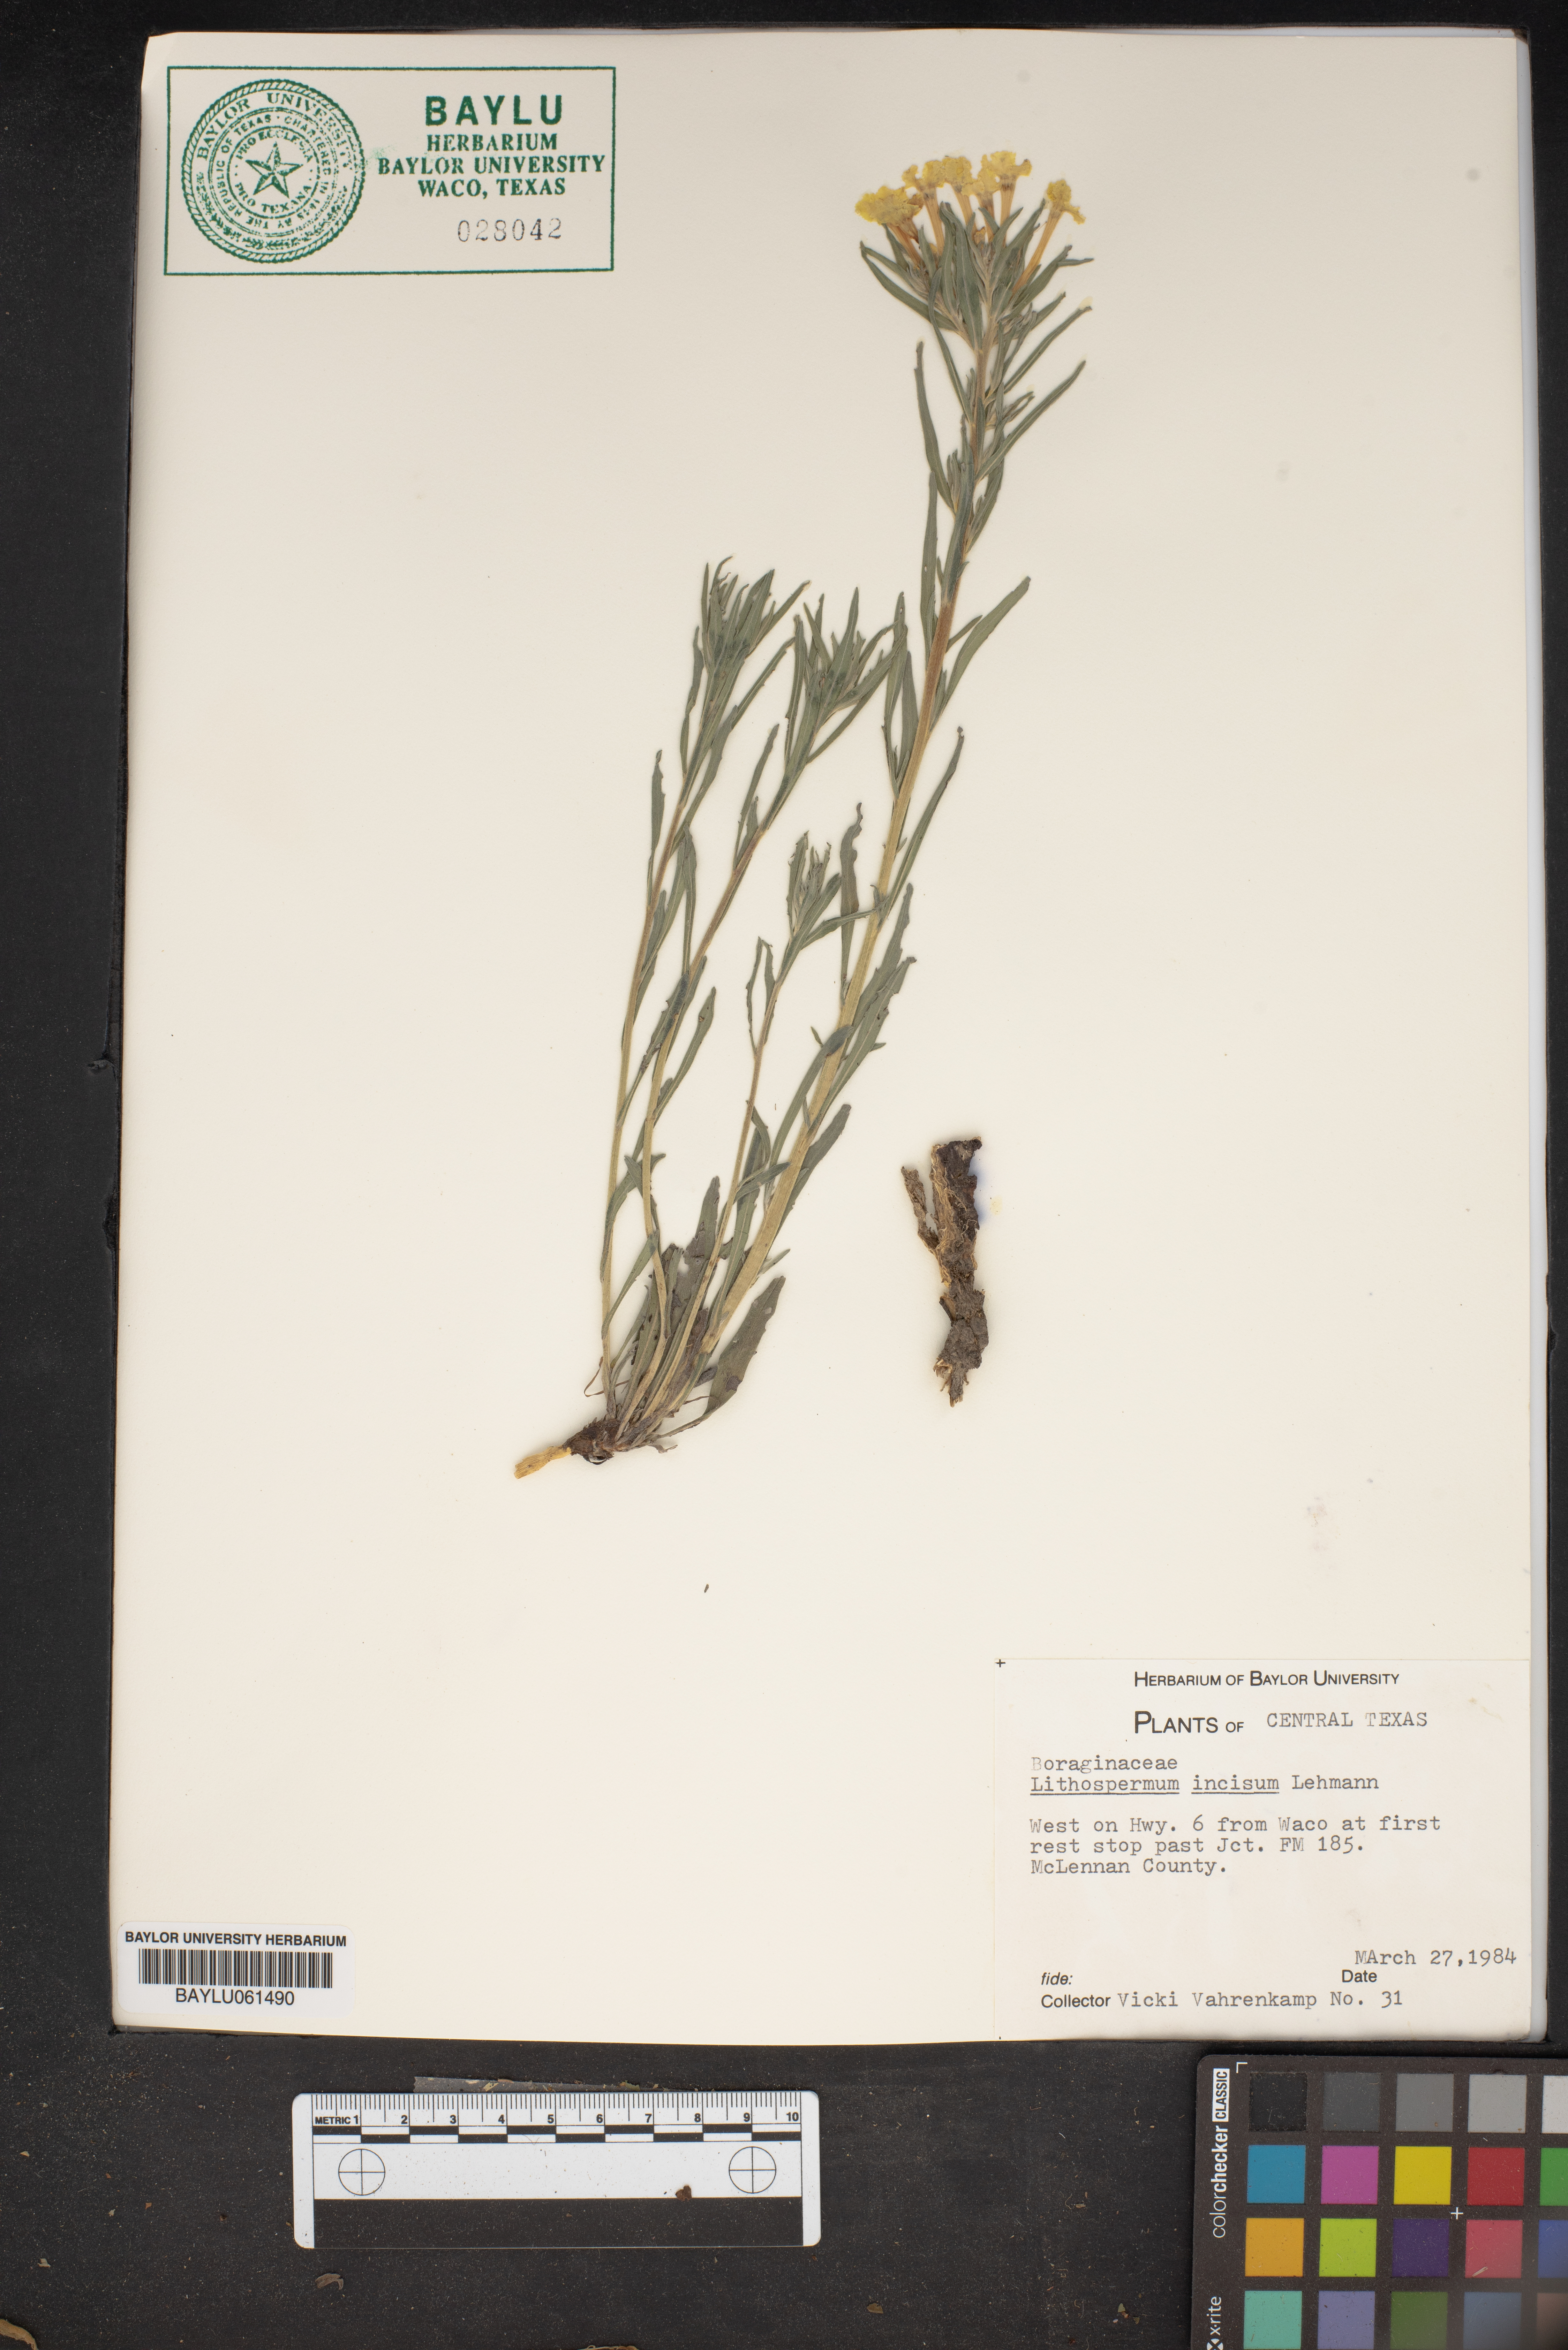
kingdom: Plantae
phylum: Tracheophyta
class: Magnoliopsida
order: Boraginales
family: Boraginaceae
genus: Lithospermum
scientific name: Lithospermum incisum
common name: Fringed gromwell
